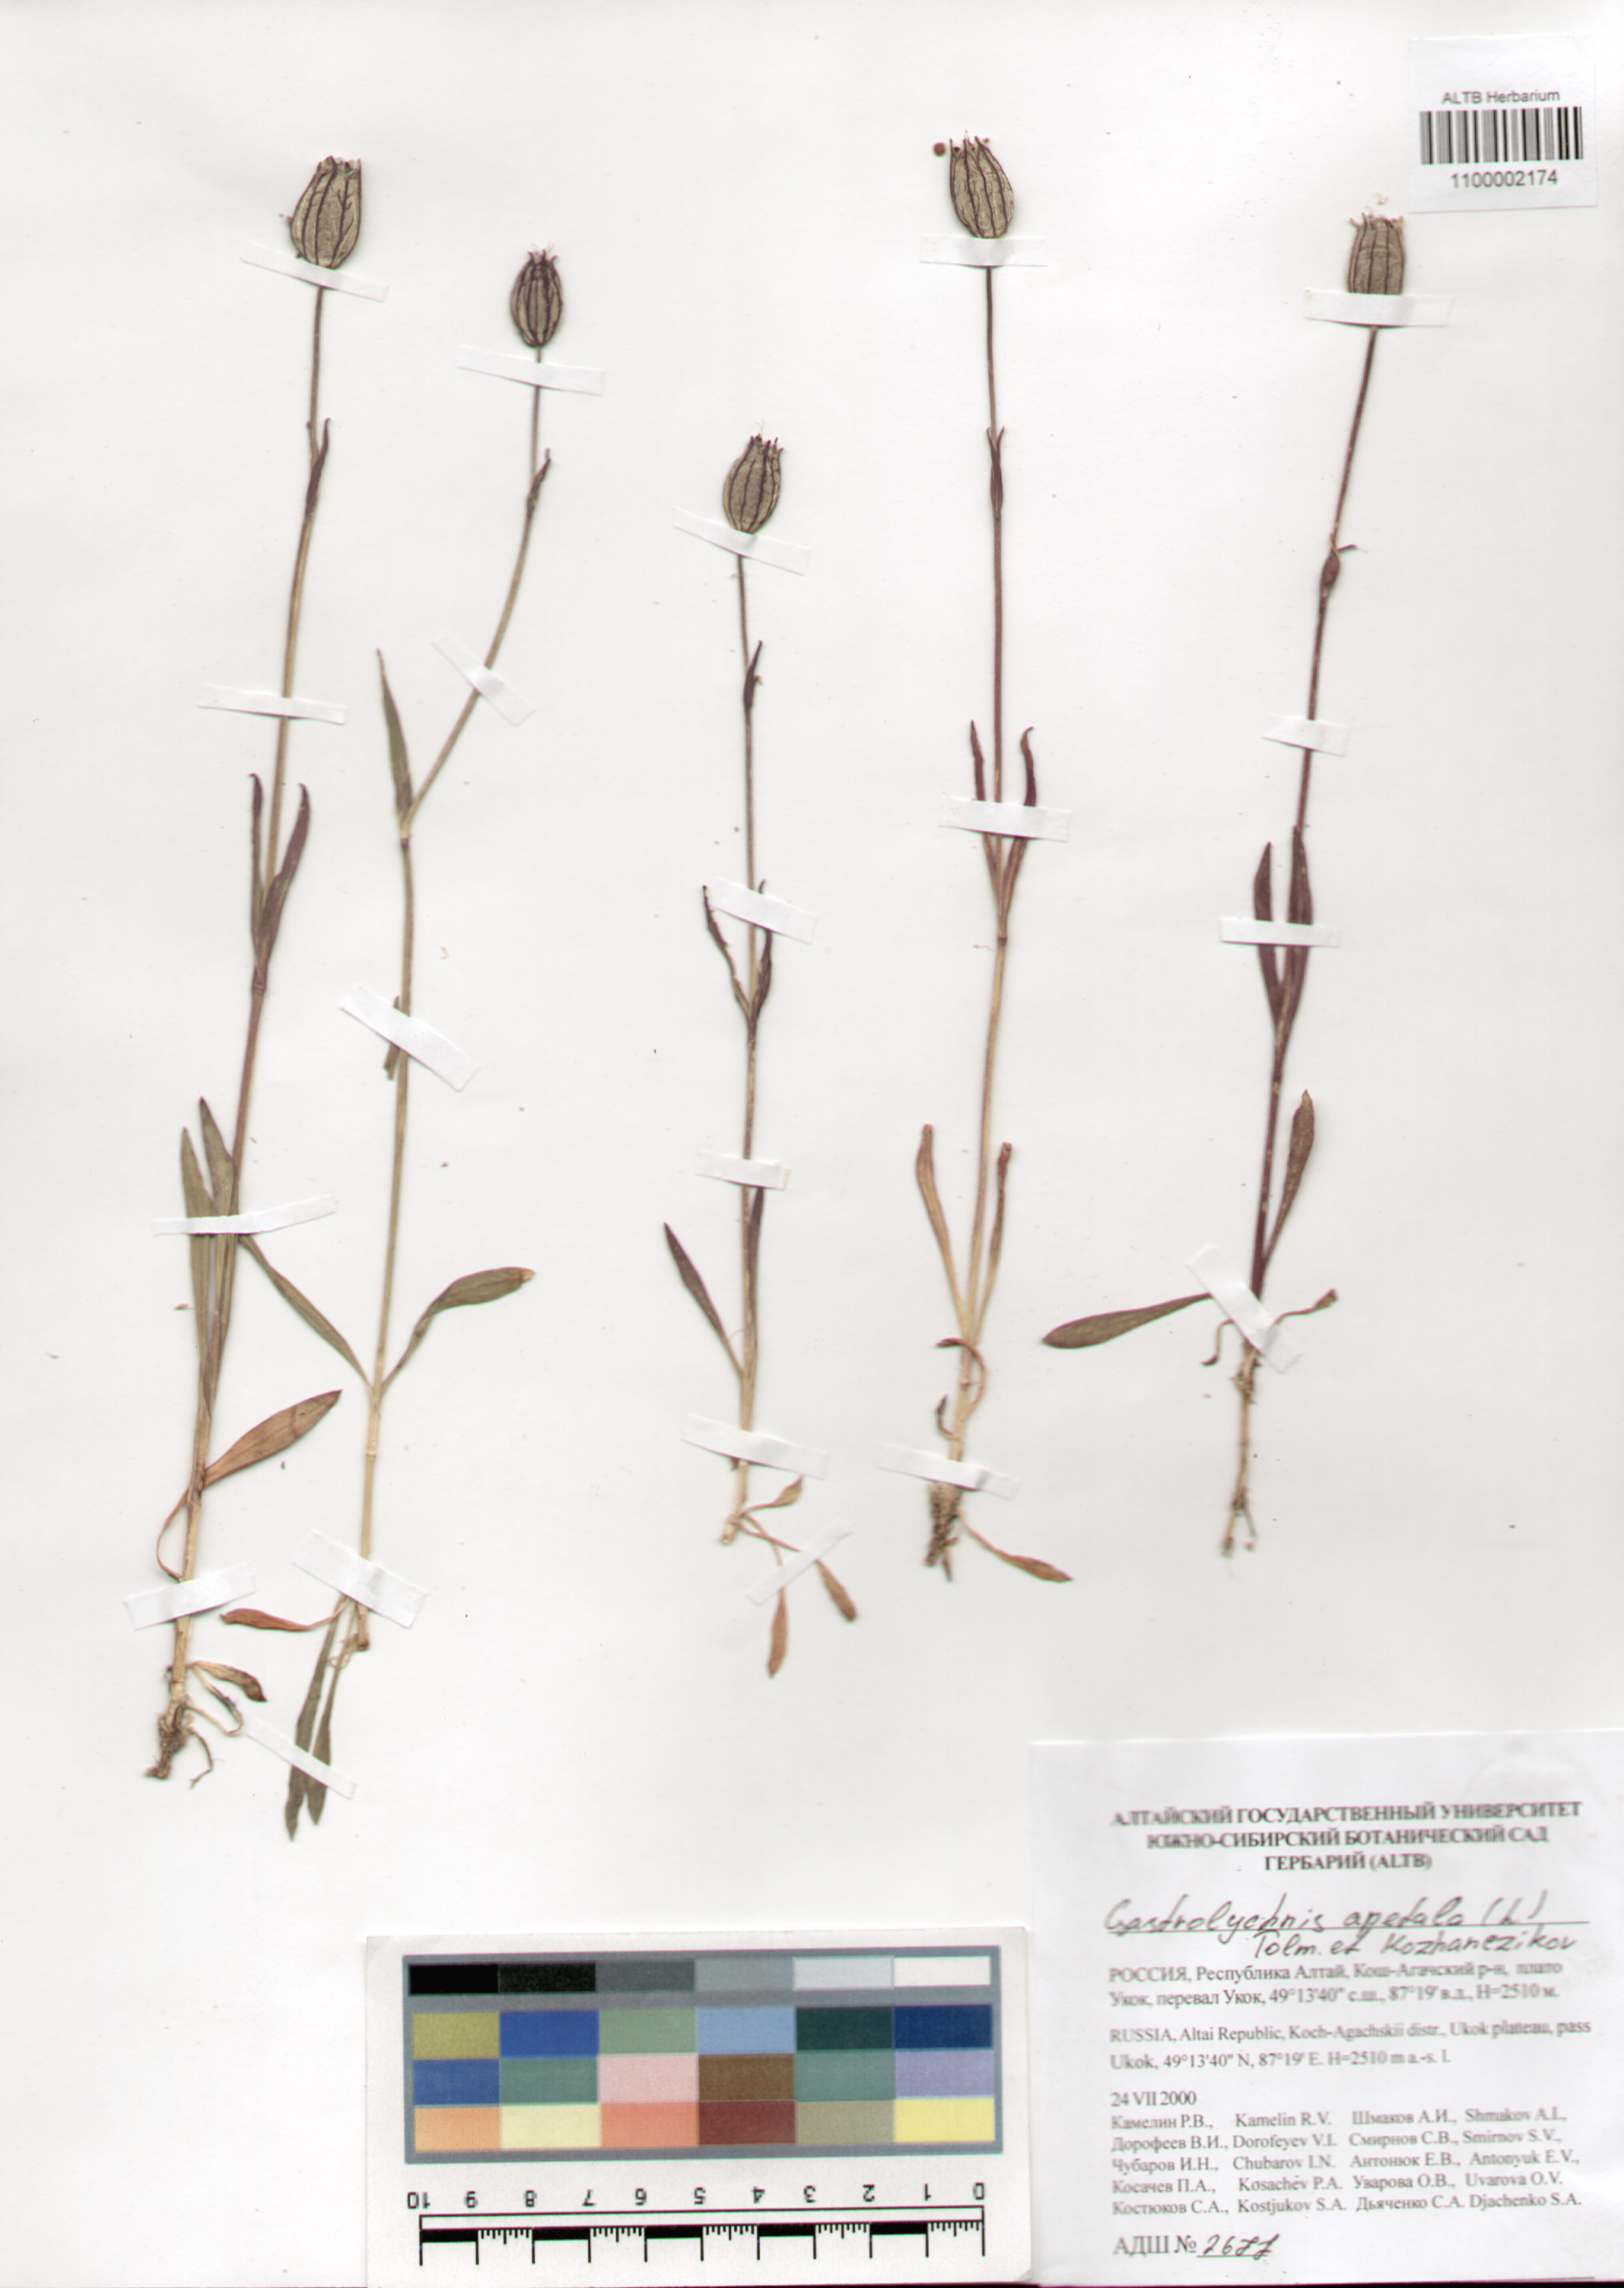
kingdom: Plantae
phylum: Tracheophyta
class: Magnoliopsida
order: Caryophyllales
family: Caryophyllaceae
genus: Silene
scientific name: Silene wahlbergella
